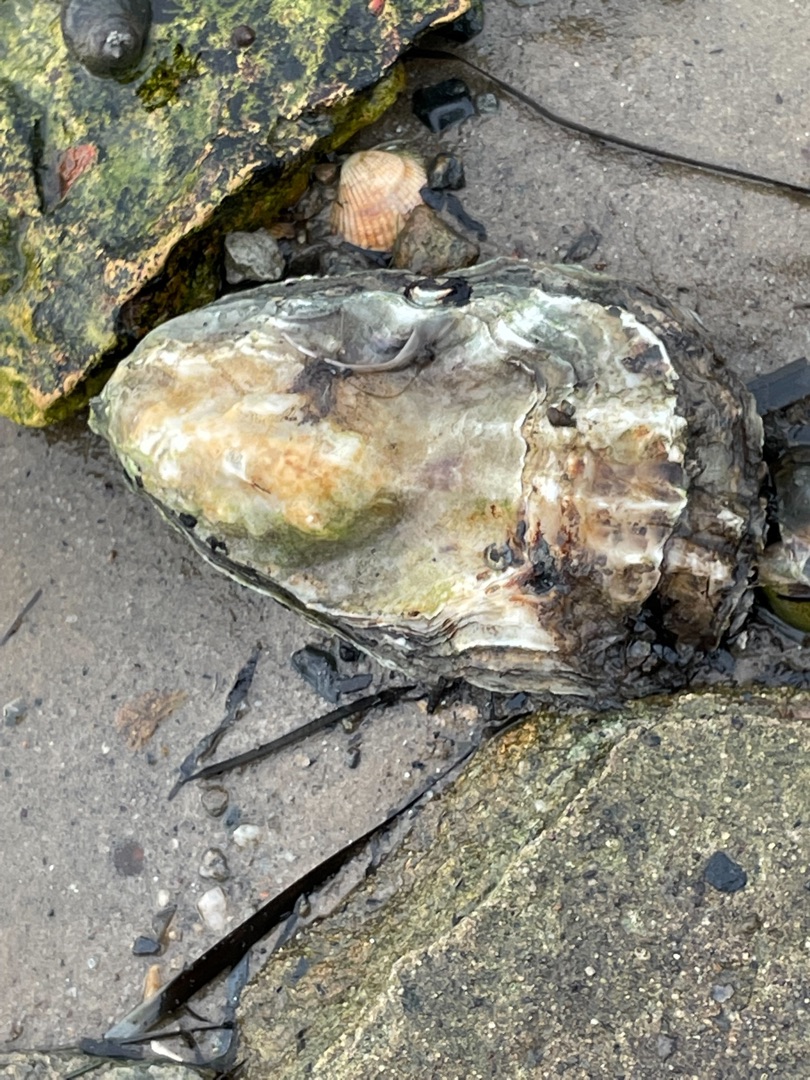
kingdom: Animalia
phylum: Mollusca
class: Bivalvia
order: Ostreida
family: Ostreidae
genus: Magallana
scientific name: Magallana gigas
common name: Stillehavsøsters
